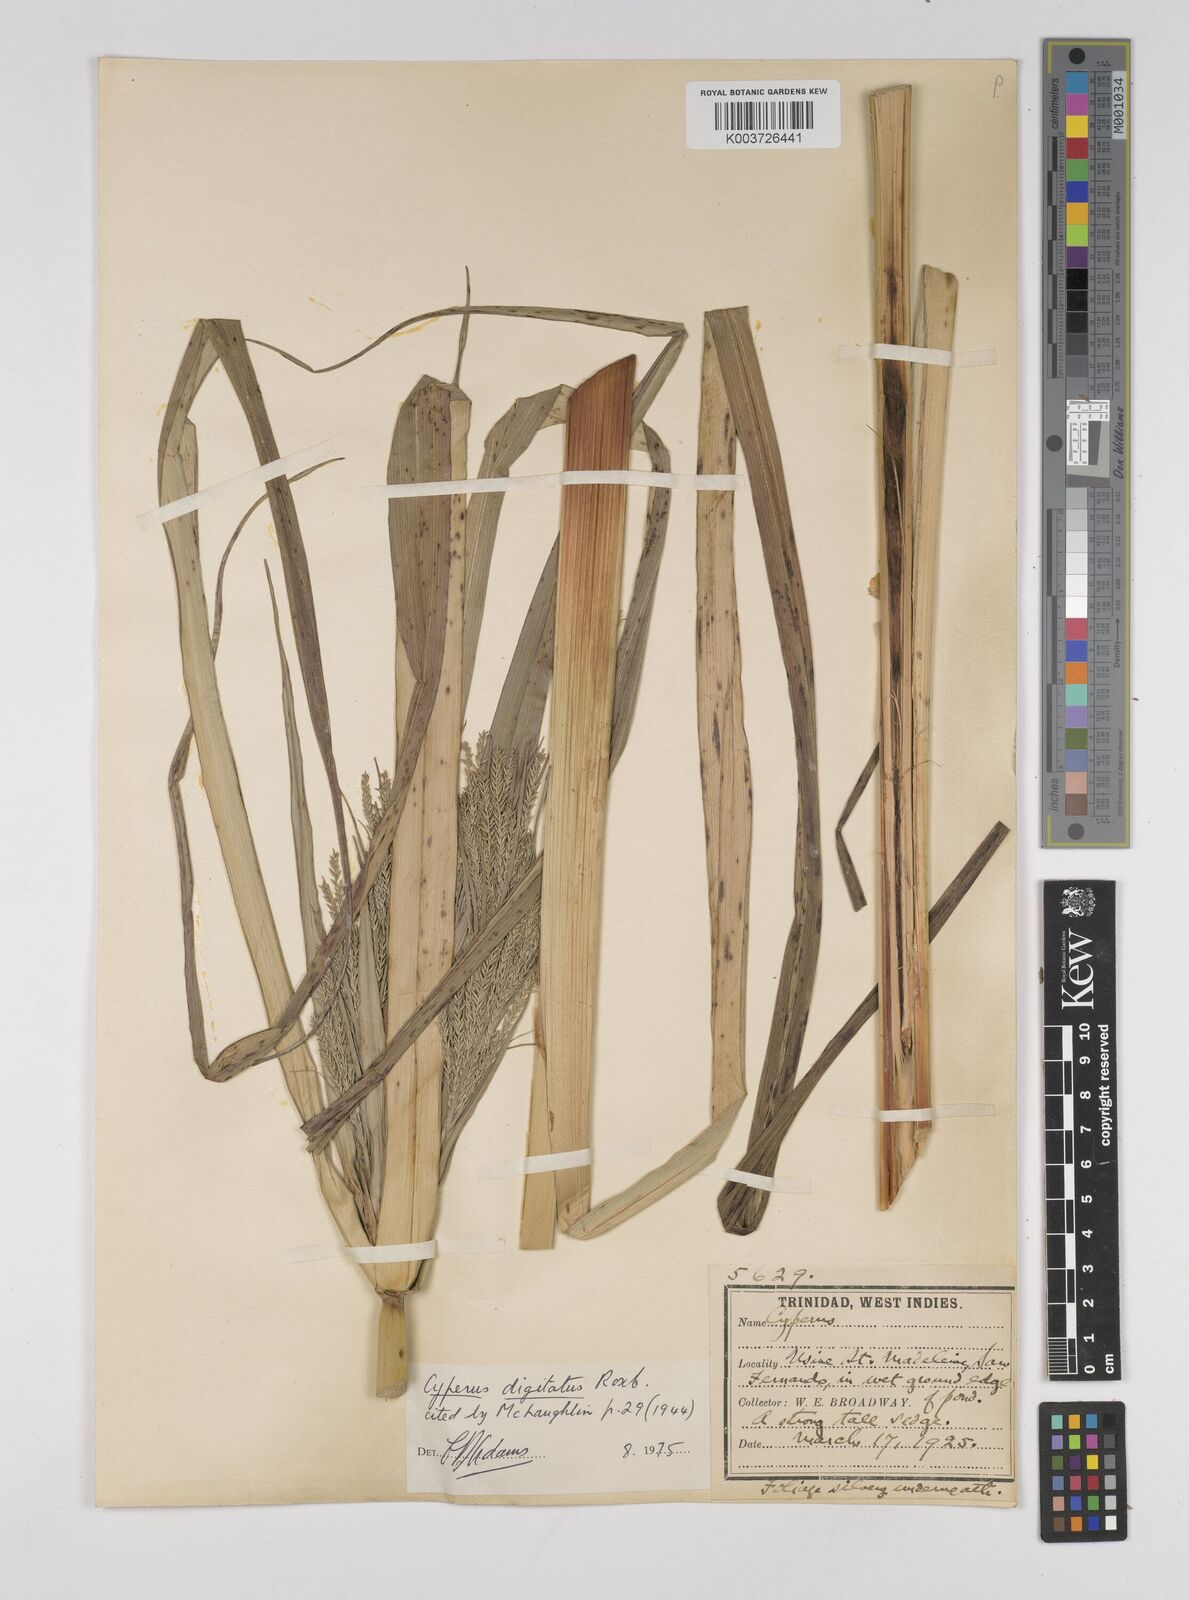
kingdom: Plantae
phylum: Tracheophyta
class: Liliopsida
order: Poales
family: Cyperaceae
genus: Cyperus
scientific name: Cyperus digitatus
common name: Finger flatsedge
